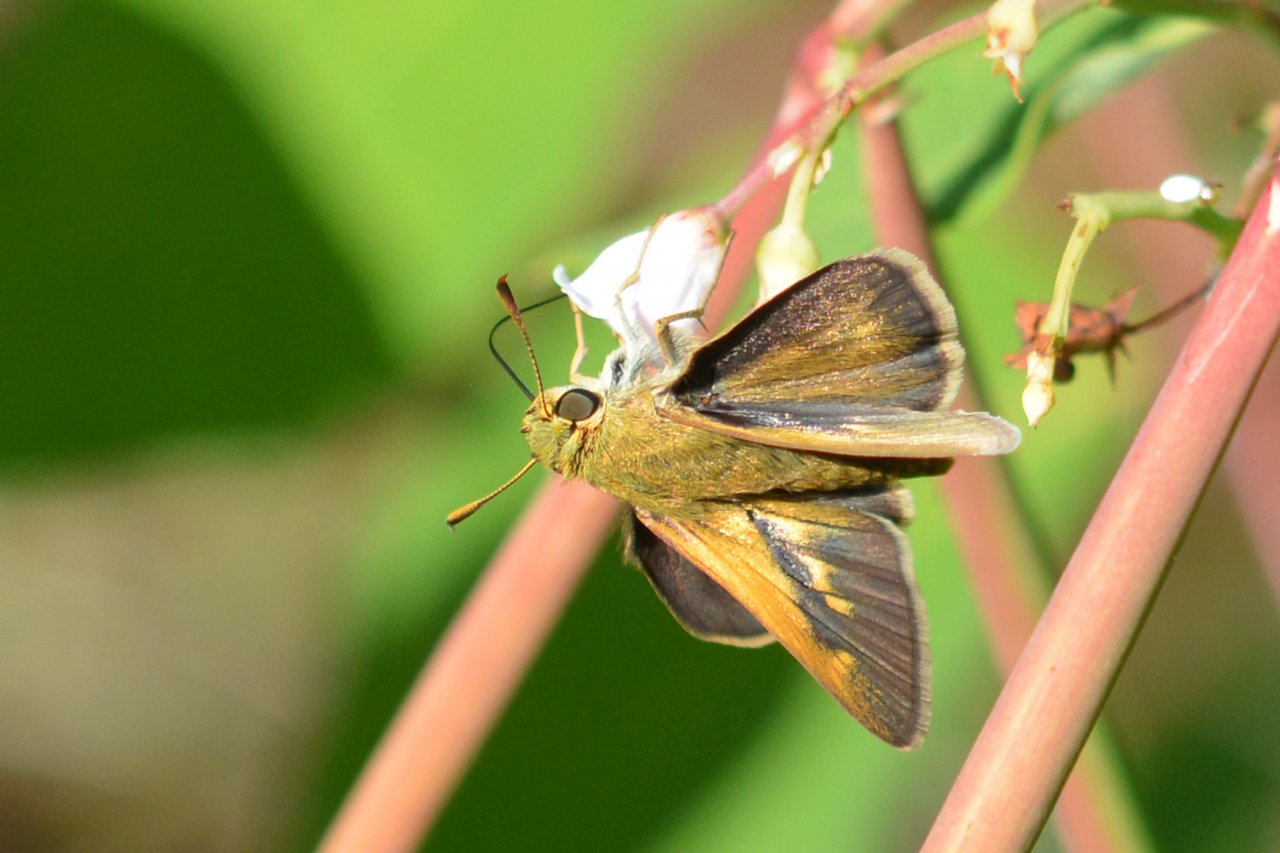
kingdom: Animalia
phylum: Arthropoda
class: Insecta
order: Lepidoptera
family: Hesperiidae
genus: Polites
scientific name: Polites
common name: Long Dash Skipper
